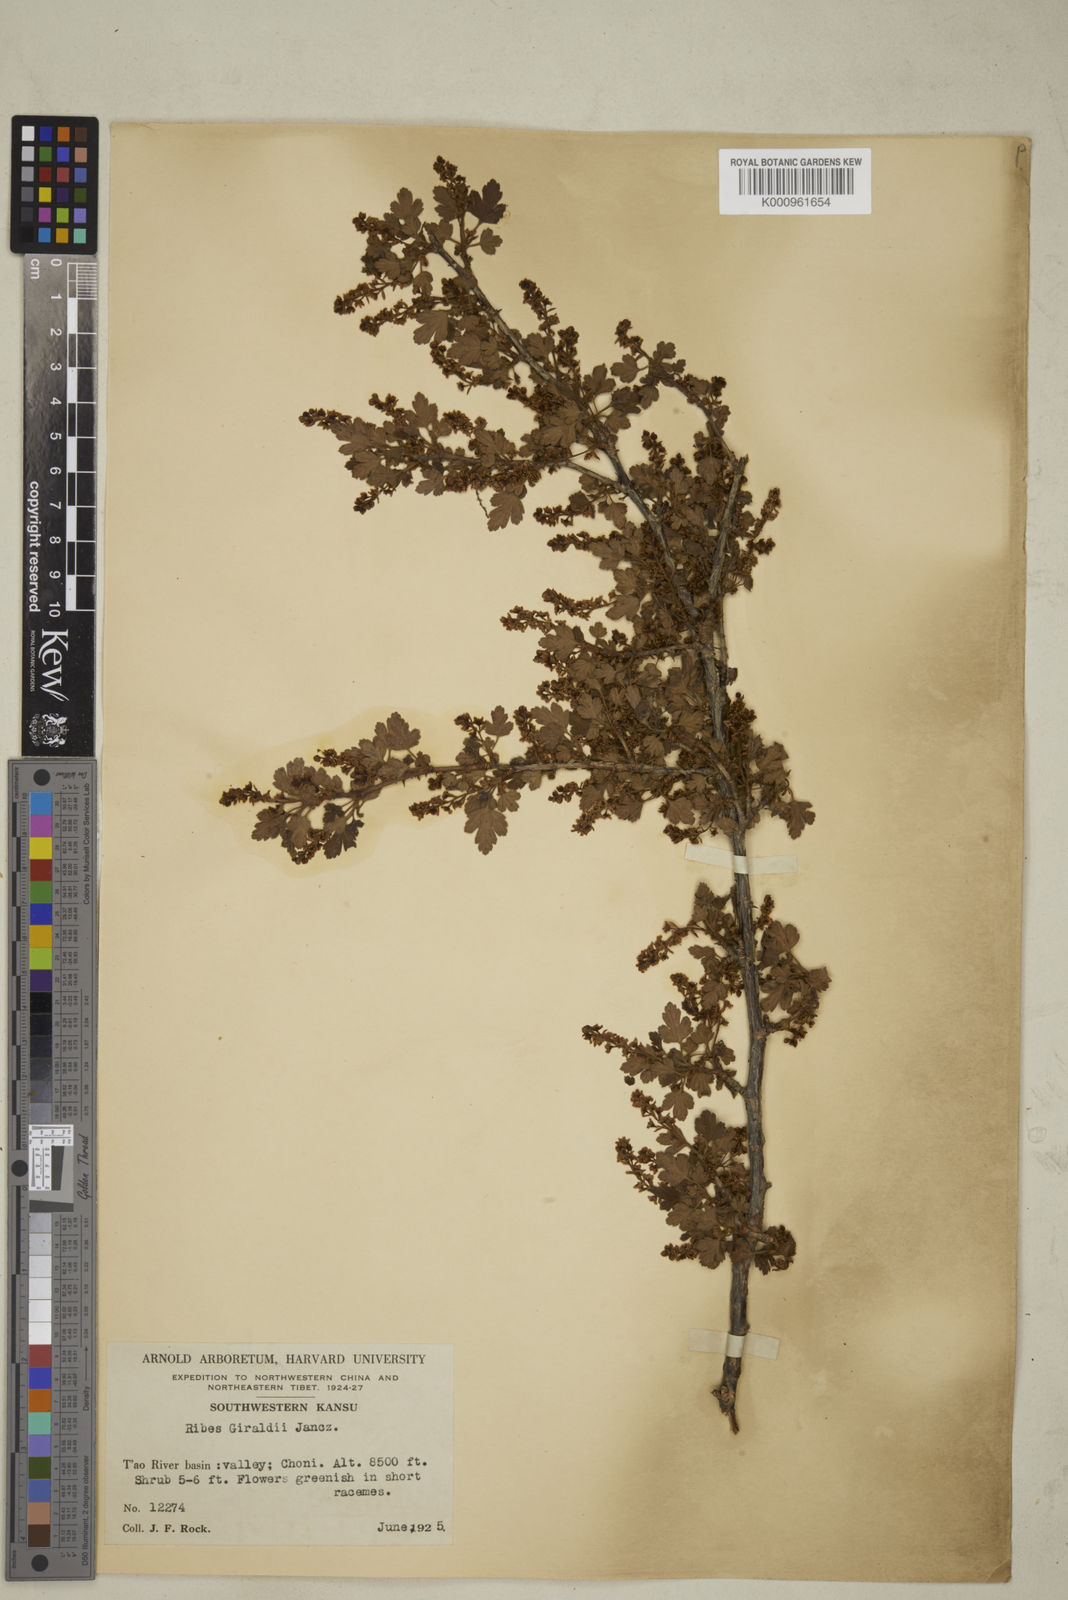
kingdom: Plantae
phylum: Tracheophyta
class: Magnoliopsida
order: Saxifragales
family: Grossulariaceae
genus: Ribes
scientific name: Ribes giraldii
